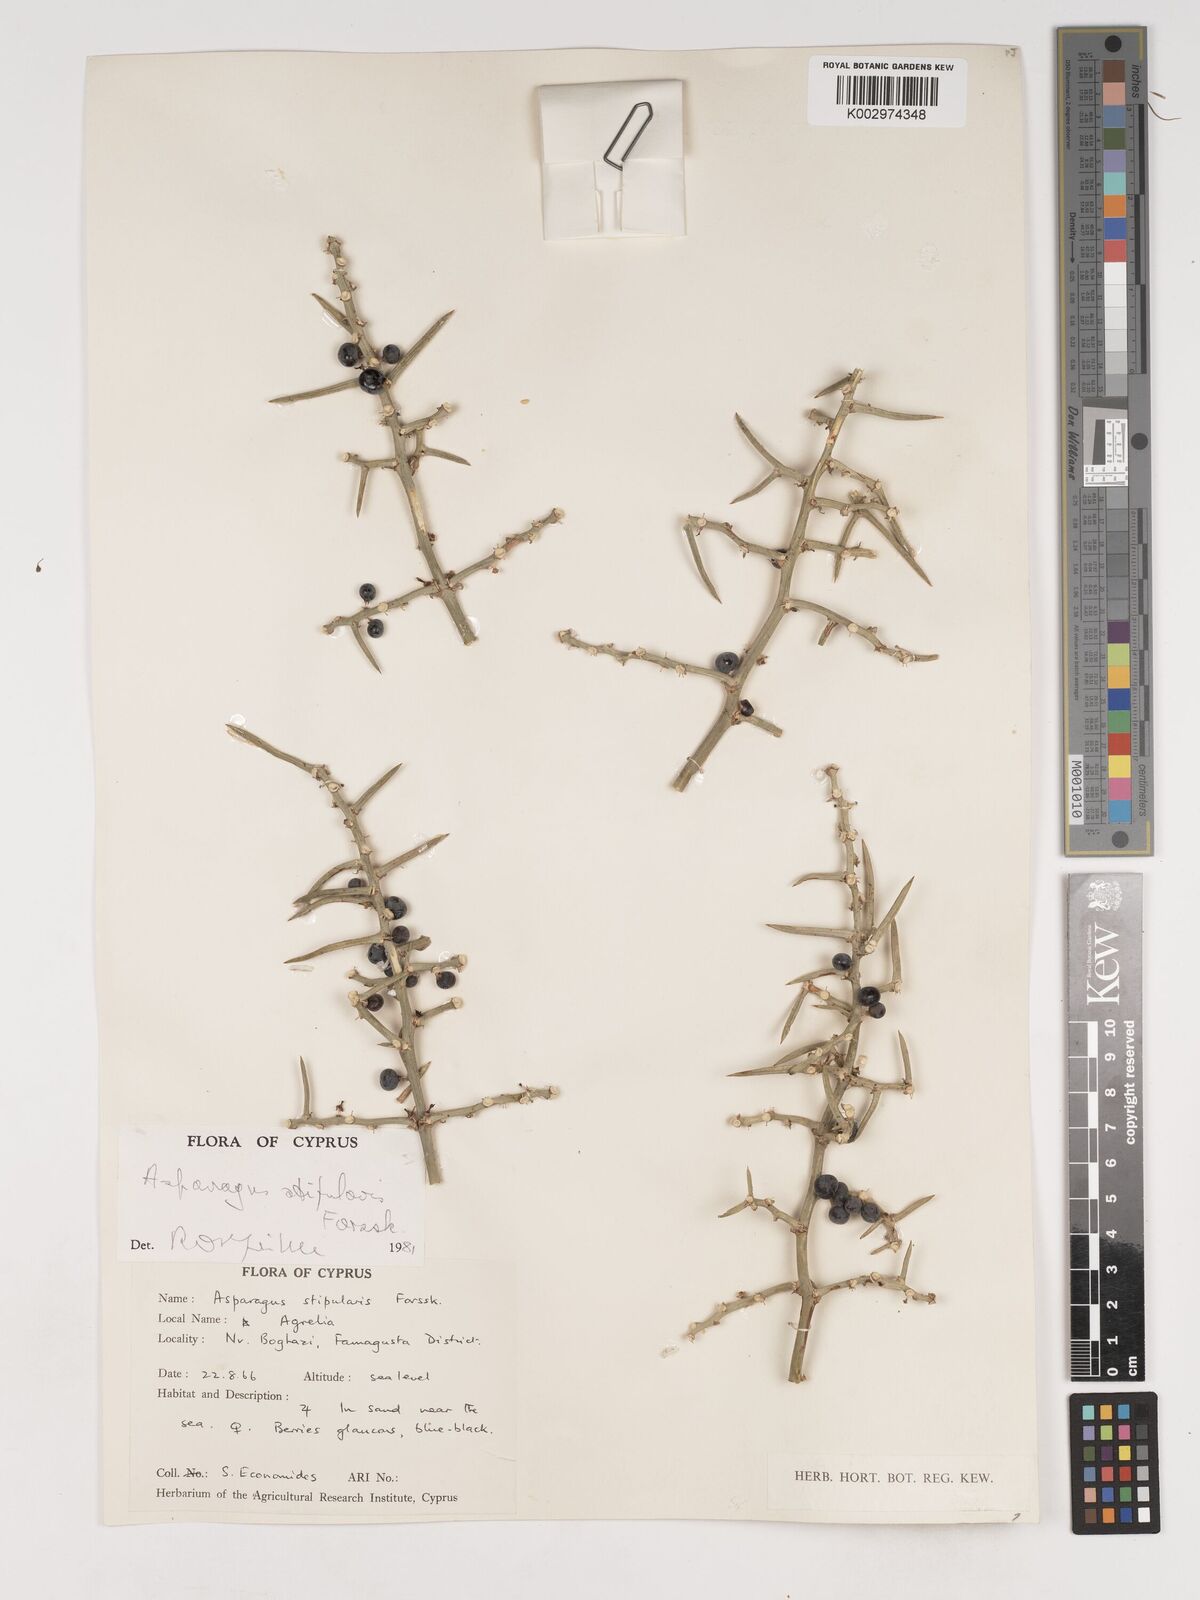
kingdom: Plantae
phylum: Tracheophyta
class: Liliopsida
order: Asparagales
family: Asparagaceae
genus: Asparagus
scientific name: Asparagus horridus
